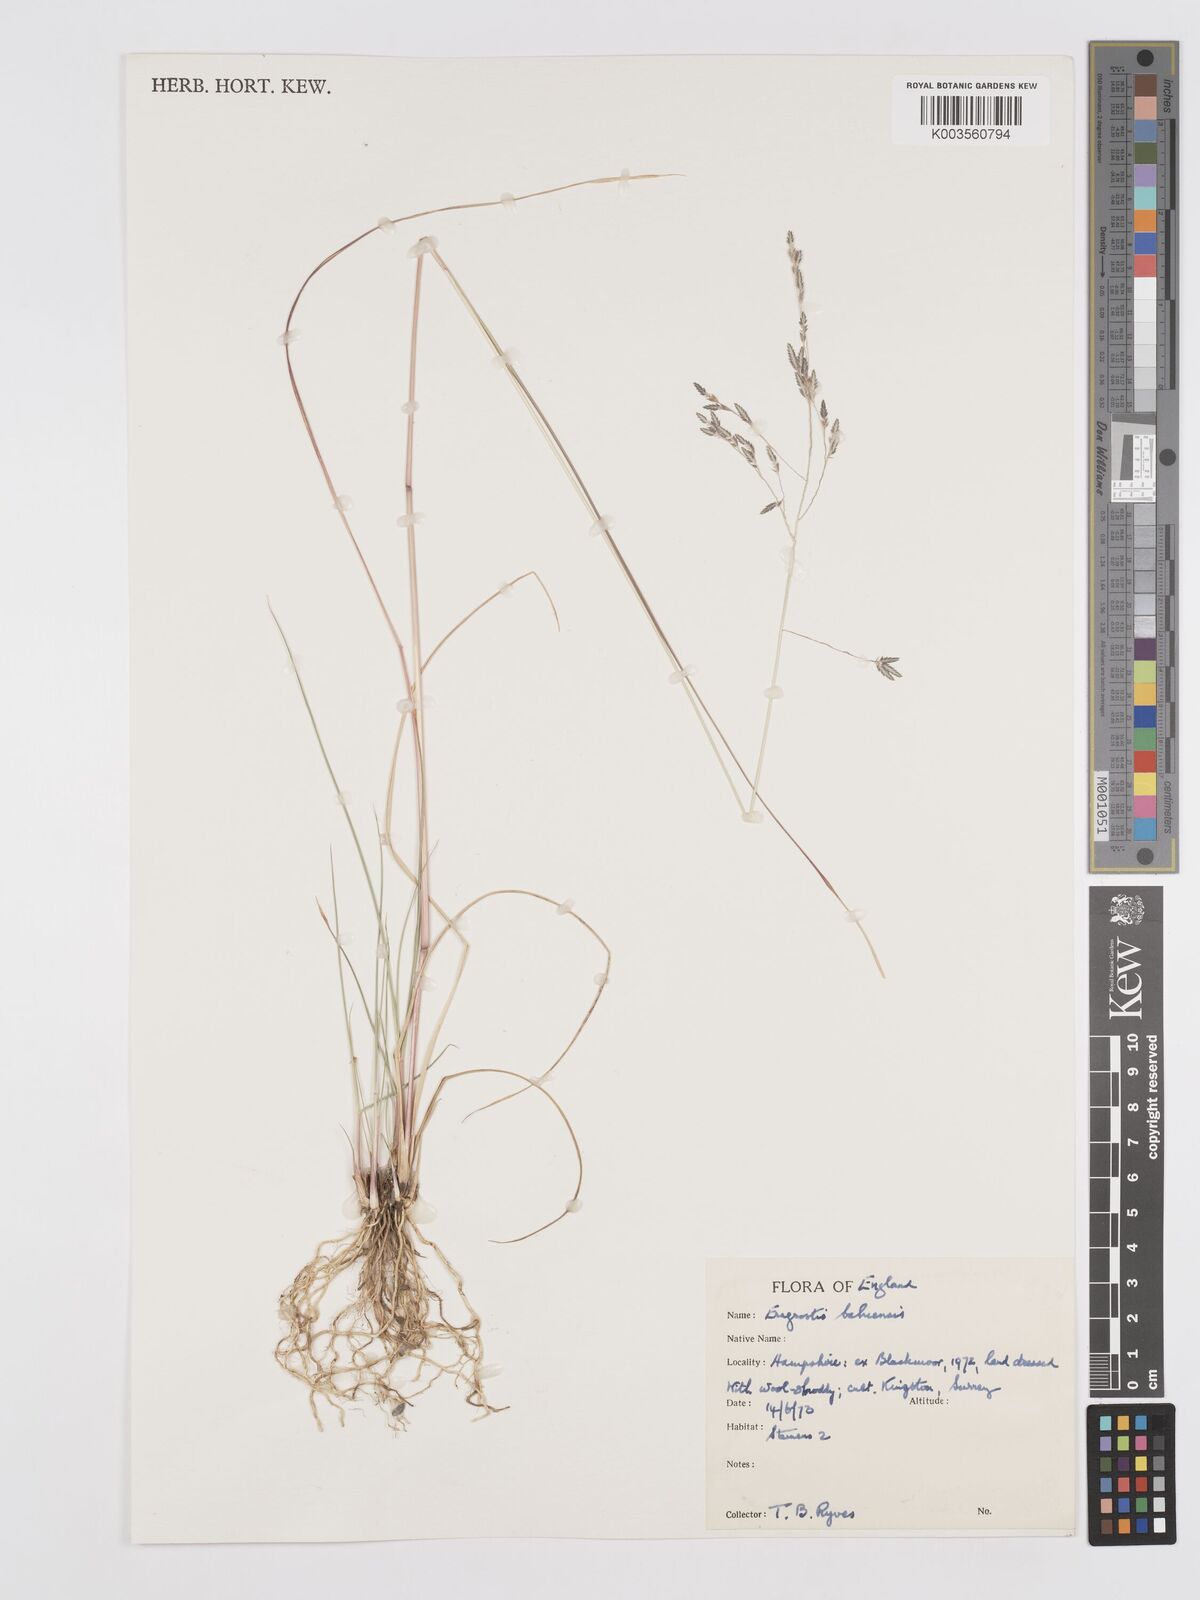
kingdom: Plantae
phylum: Tracheophyta
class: Liliopsida
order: Poales
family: Poaceae
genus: Eragrostis
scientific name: Eragrostis bahiensis
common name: Bahia lovegrass
